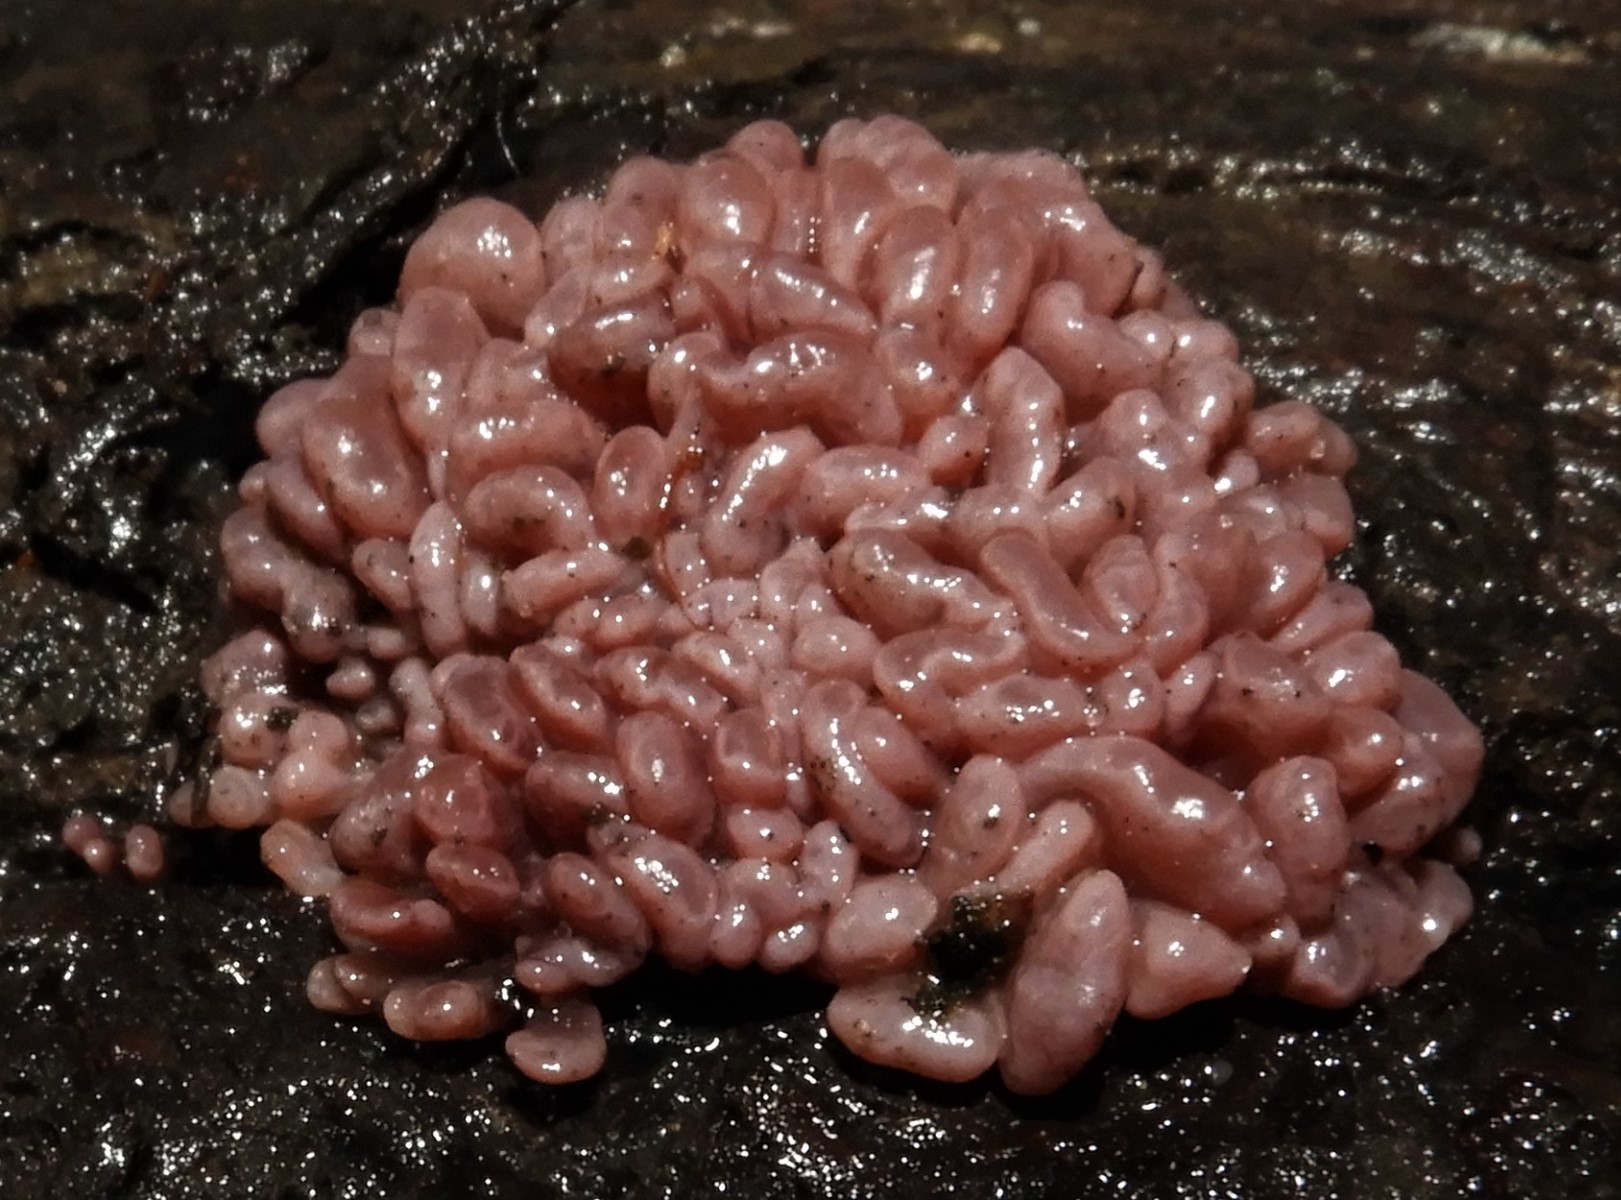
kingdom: Fungi
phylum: Ascomycota
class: Leotiomycetes
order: Helotiales
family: Gelatinodiscaceae
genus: Ascocoryne
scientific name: Ascocoryne sarcoides
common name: rødlilla sejskive
